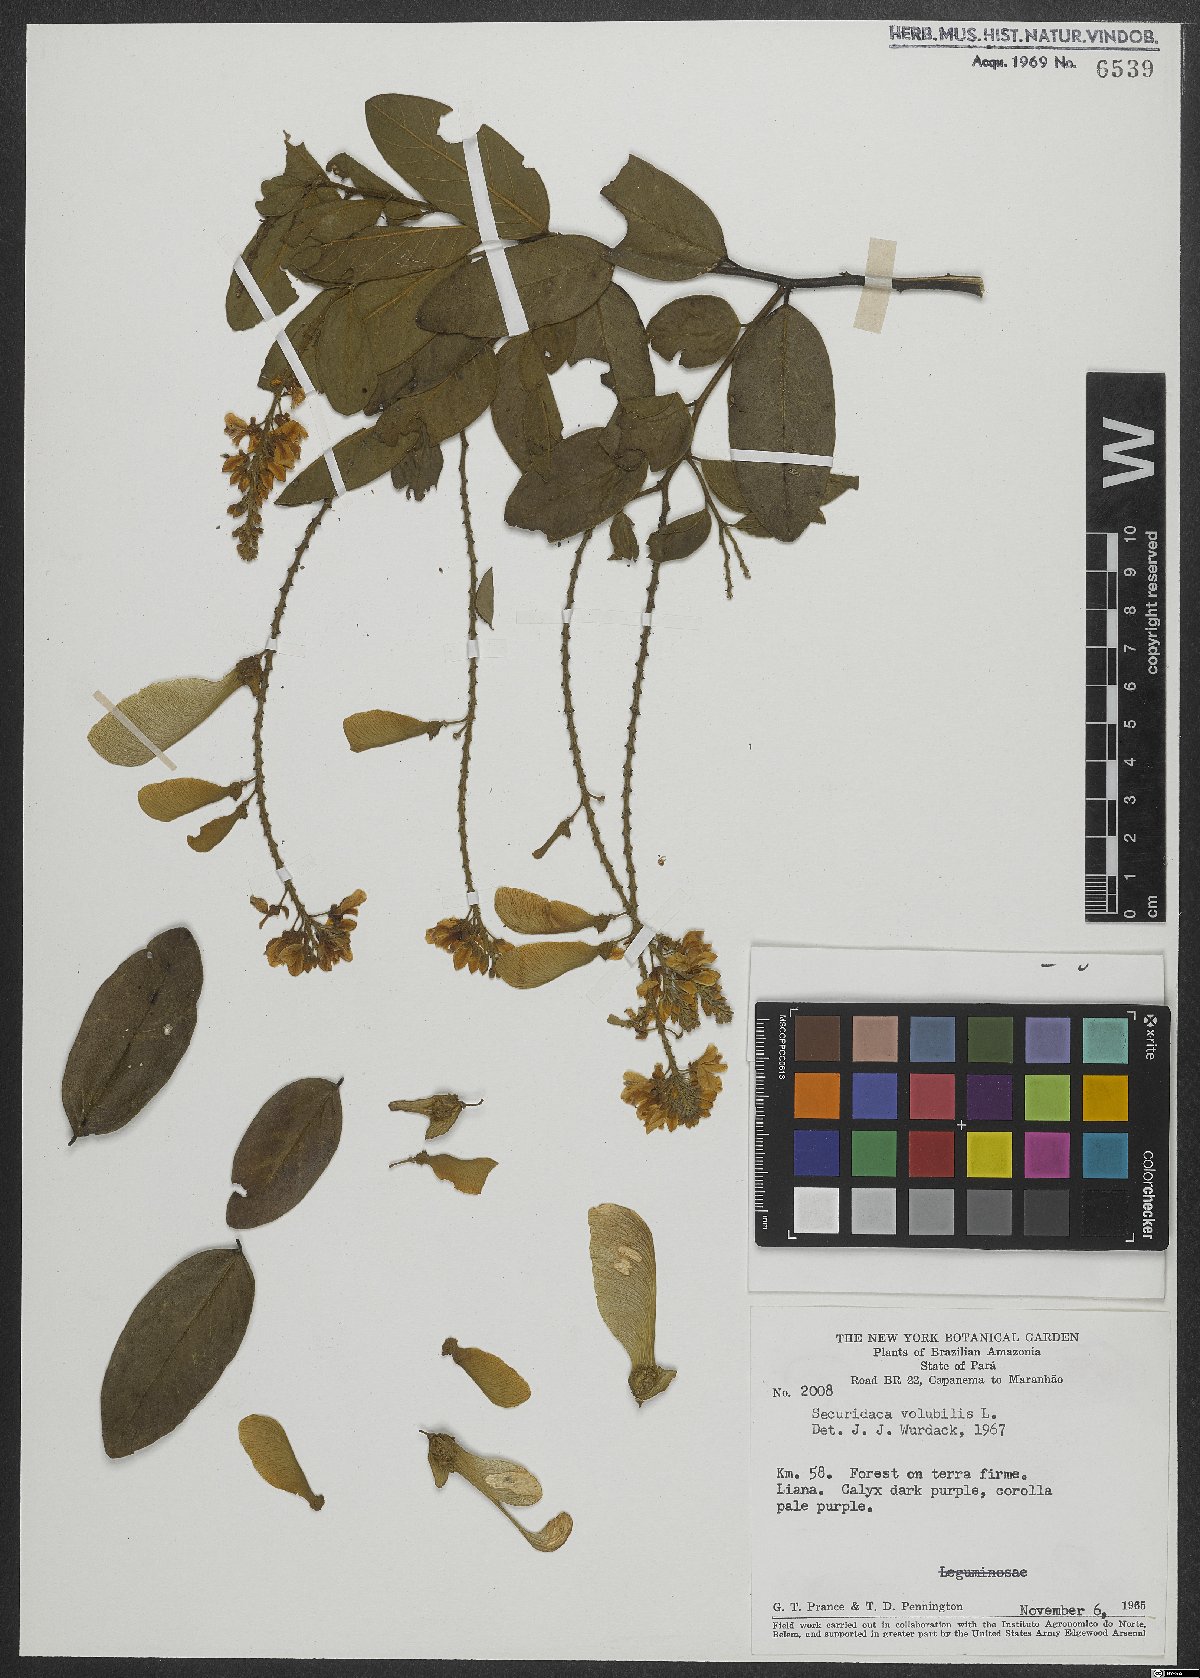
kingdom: Plantae
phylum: Tracheophyta
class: Magnoliopsida
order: Fabales
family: Polygalaceae
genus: Securidaca
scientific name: Securidaca
